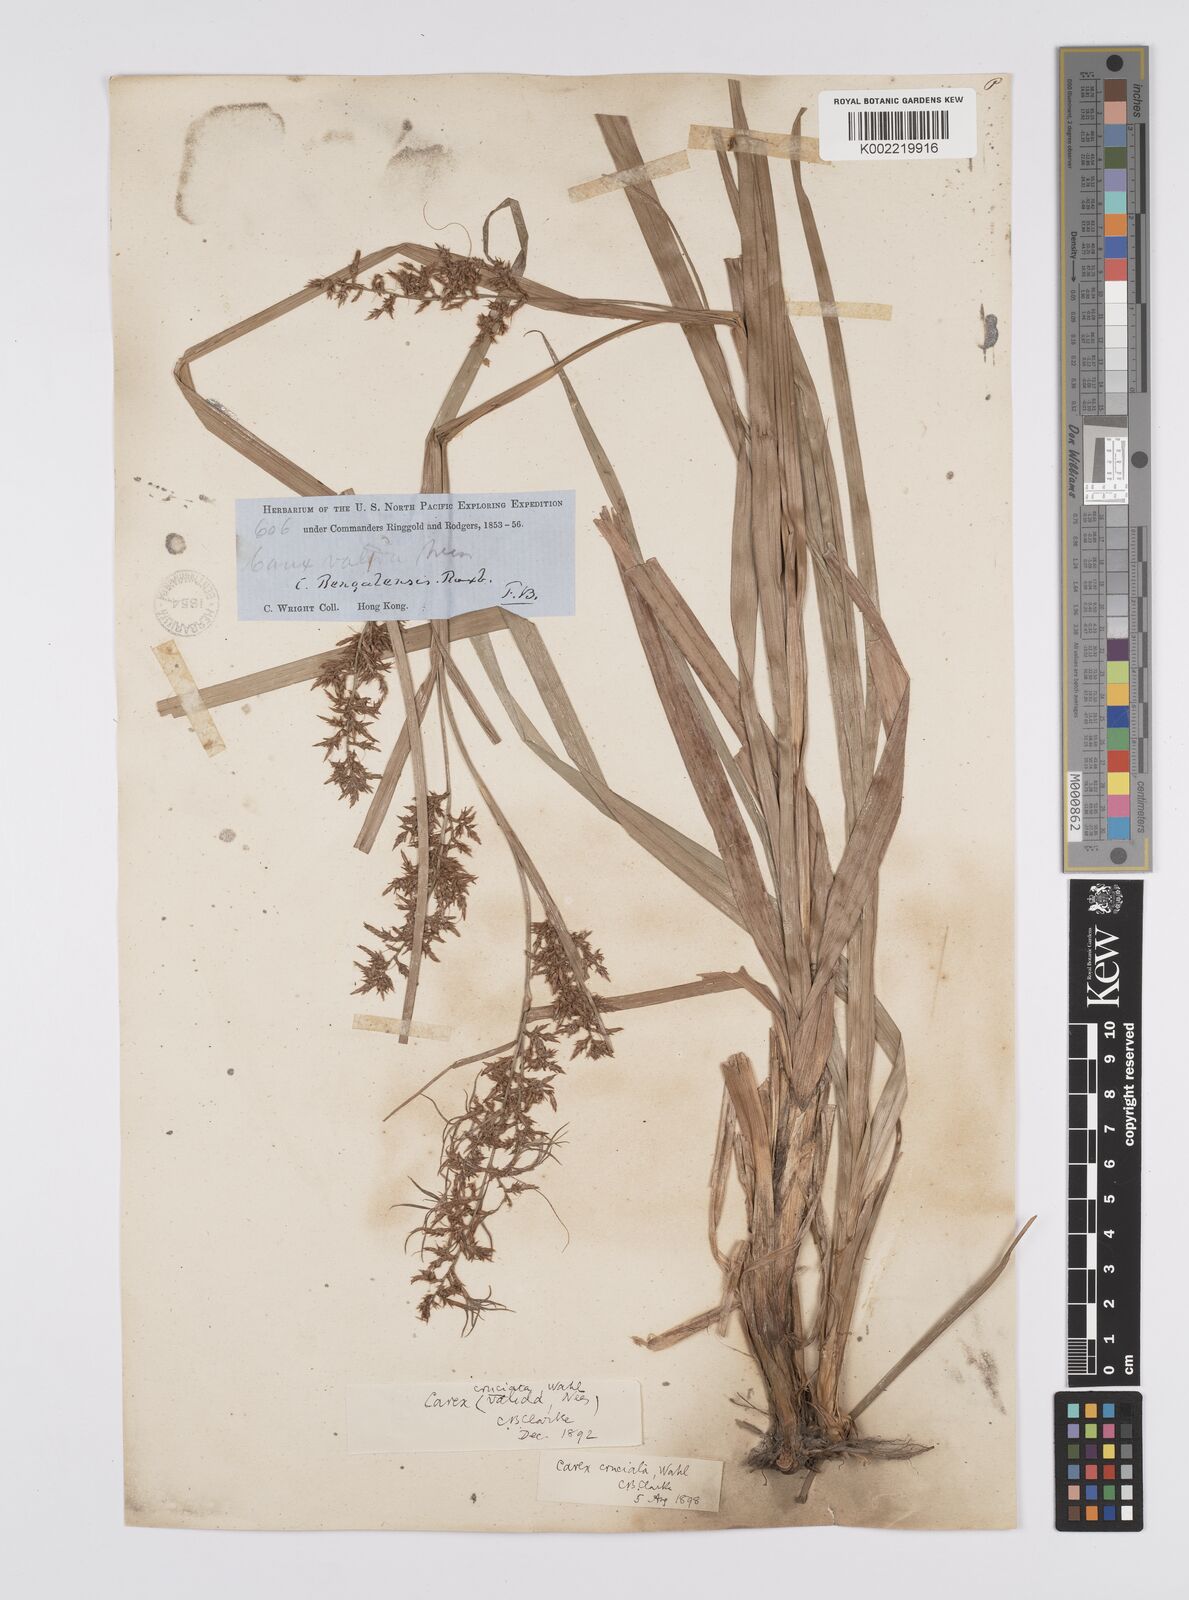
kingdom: Plantae
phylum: Tracheophyta
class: Liliopsida
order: Poales
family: Cyperaceae
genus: Carex
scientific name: Carex cruciata
